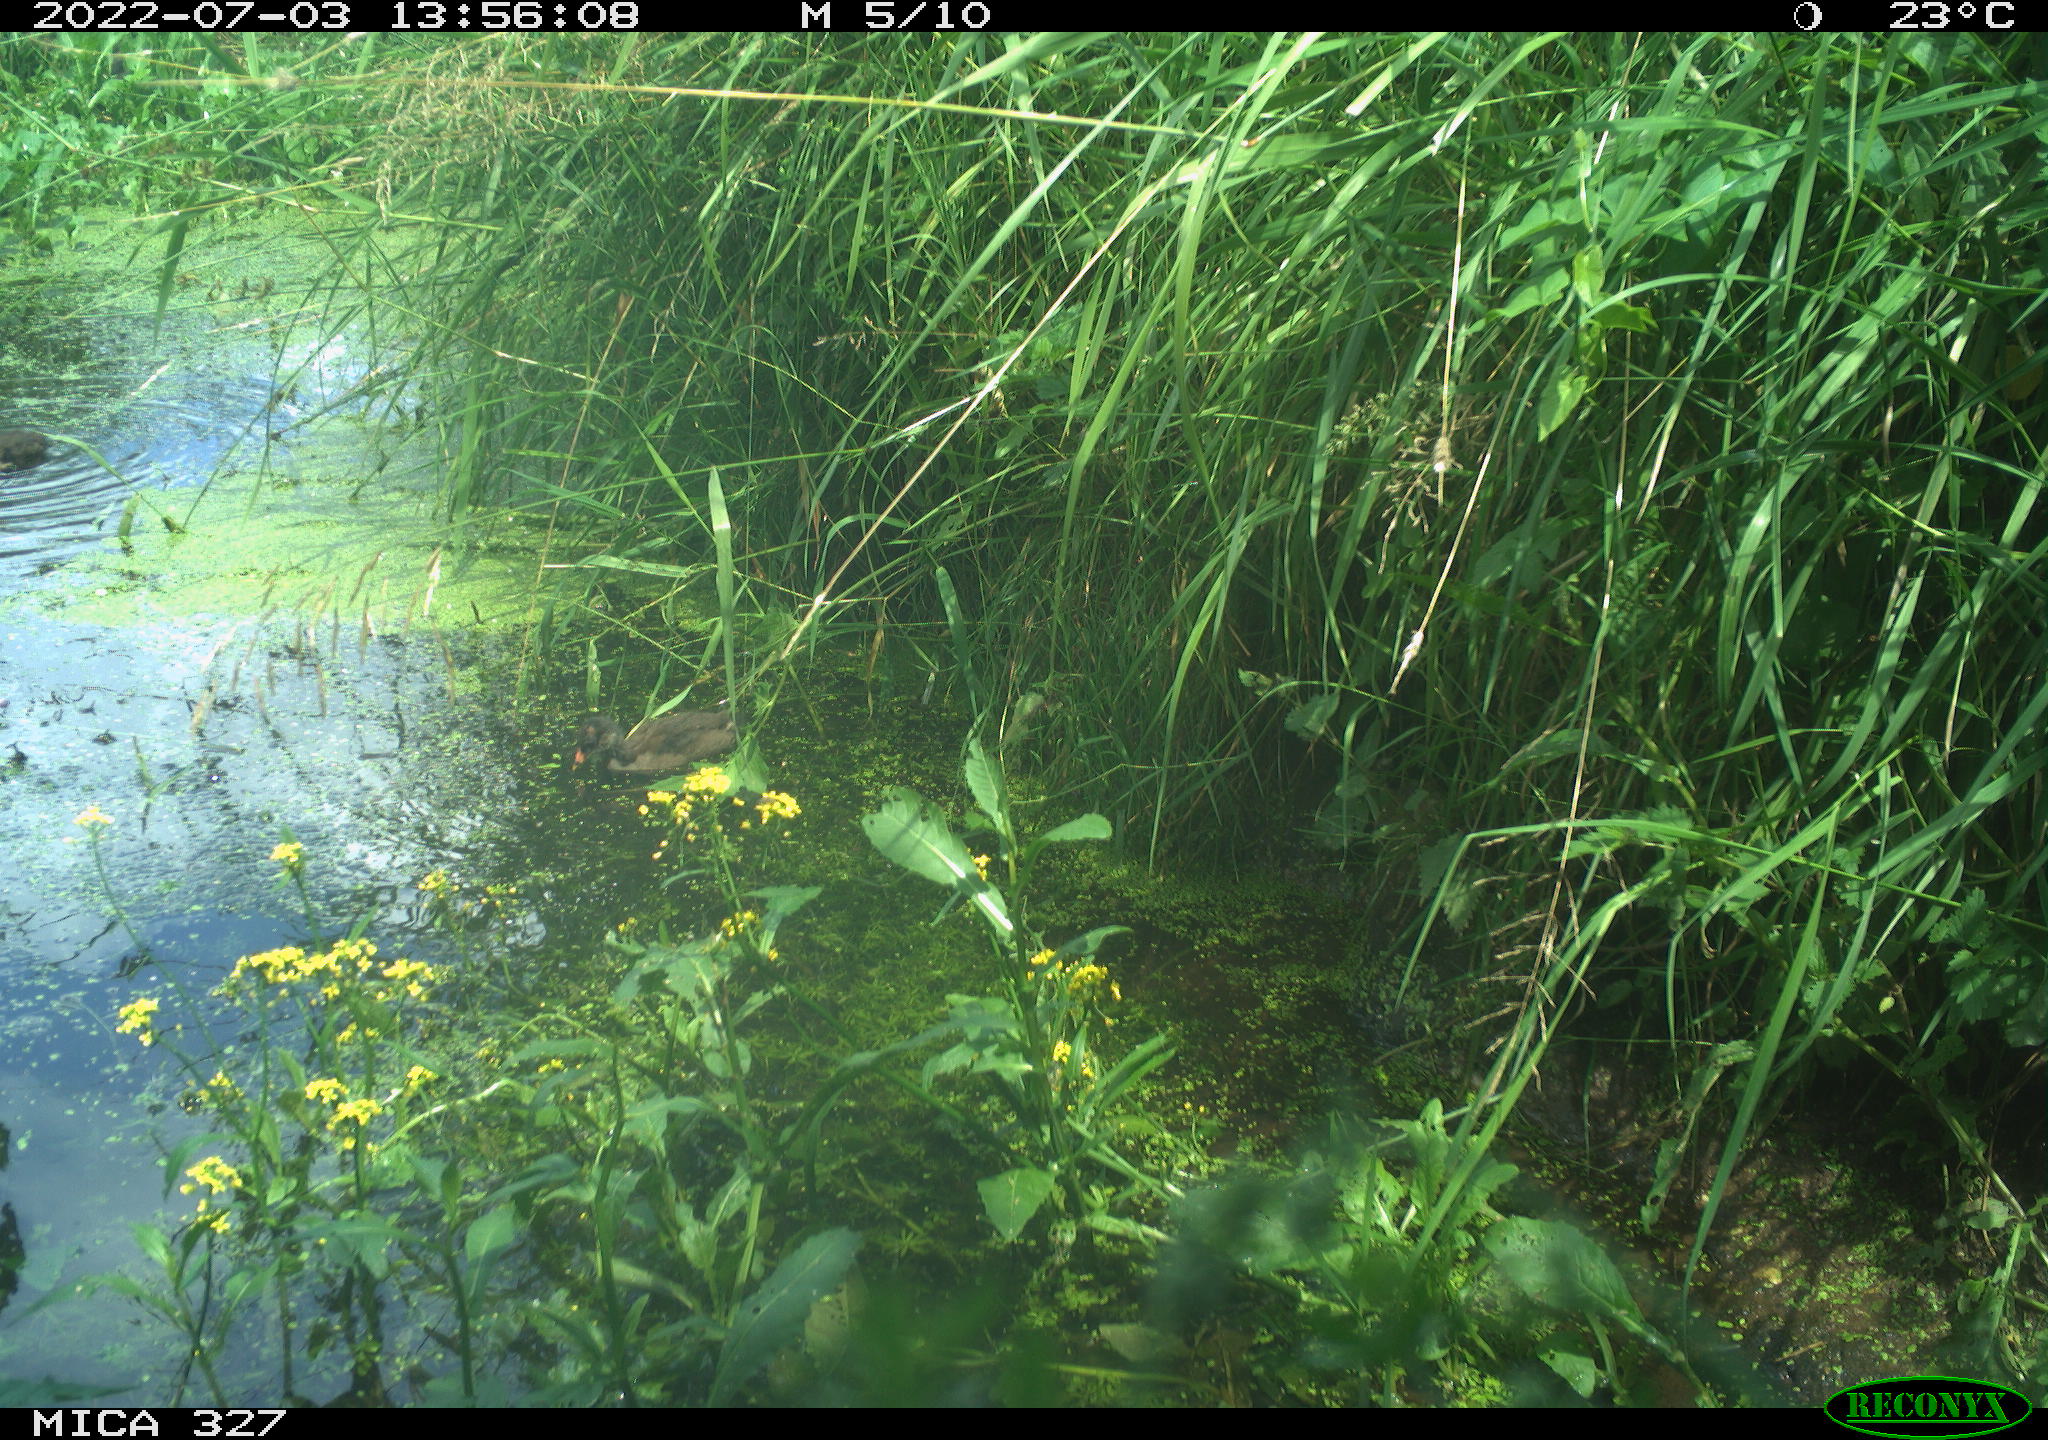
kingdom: Animalia
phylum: Chordata
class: Aves
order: Gruiformes
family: Rallidae
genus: Gallinula
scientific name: Gallinula chloropus
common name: Common moorhen
